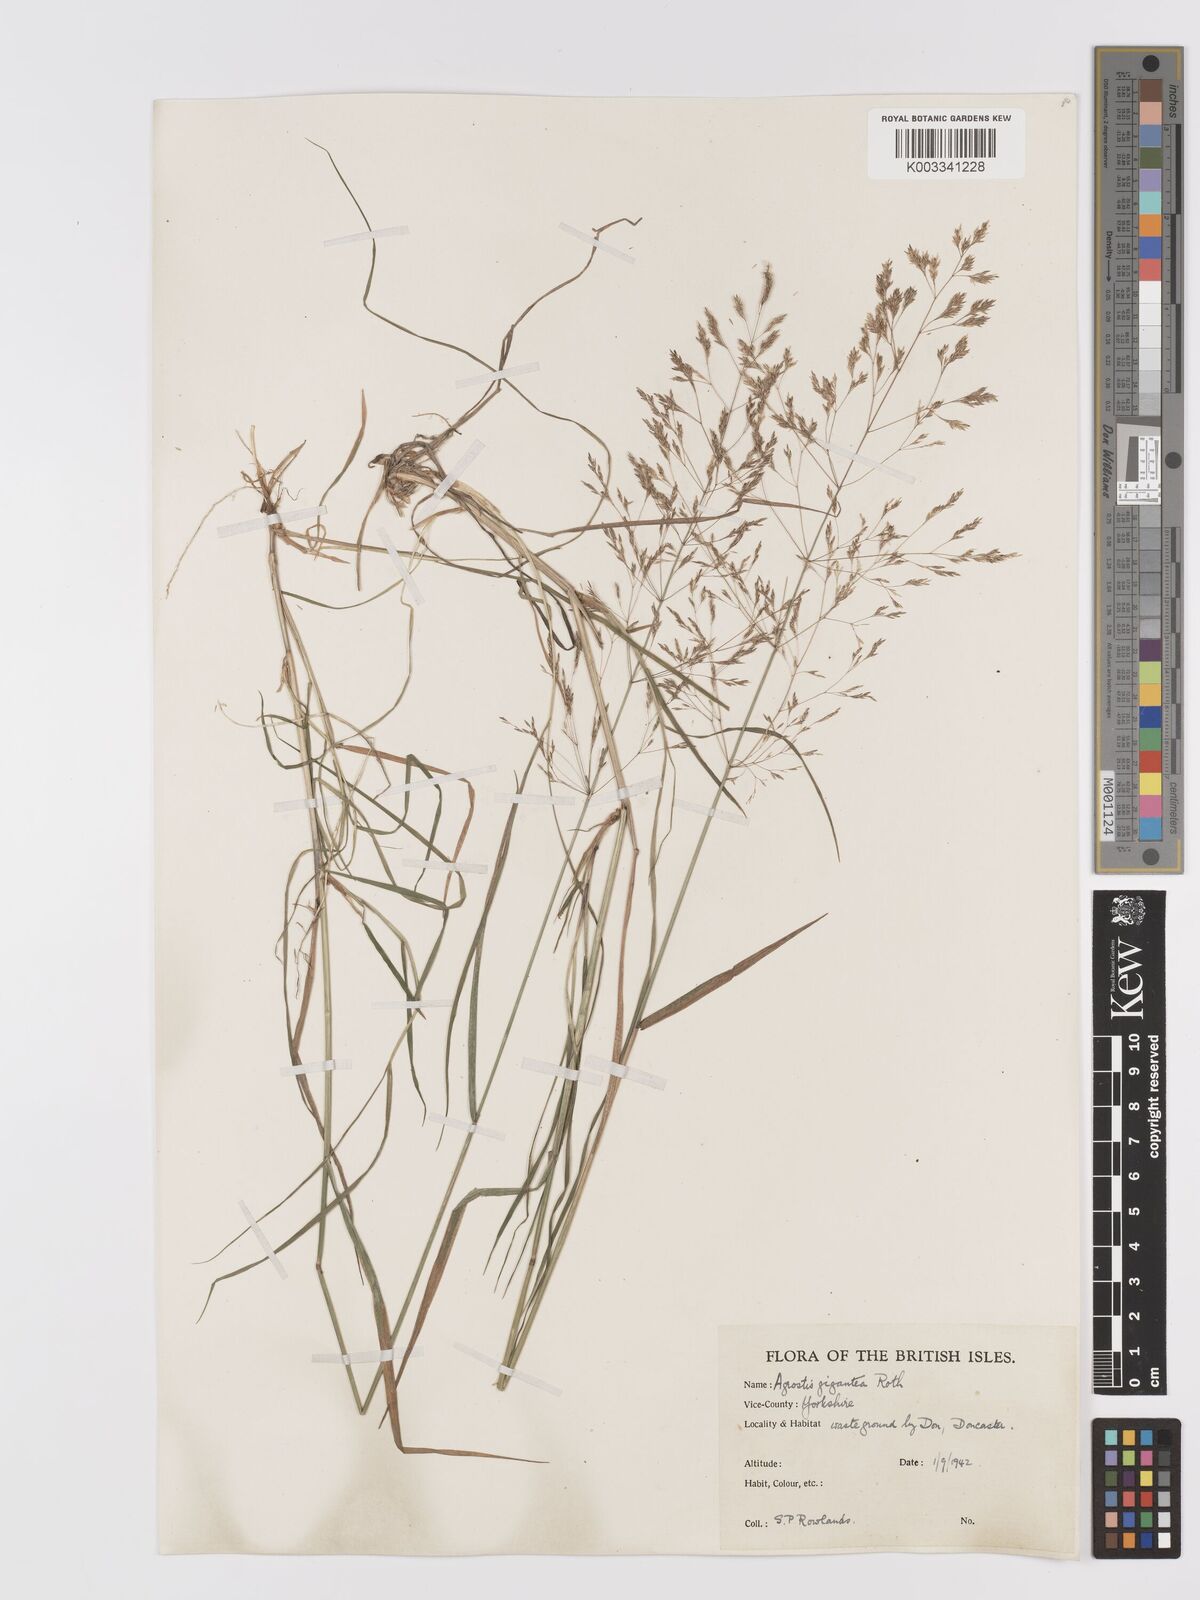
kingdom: Plantae
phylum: Tracheophyta
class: Liliopsida
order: Poales
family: Poaceae
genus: Agrostis
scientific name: Agrostis gigantea
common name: Black bent
